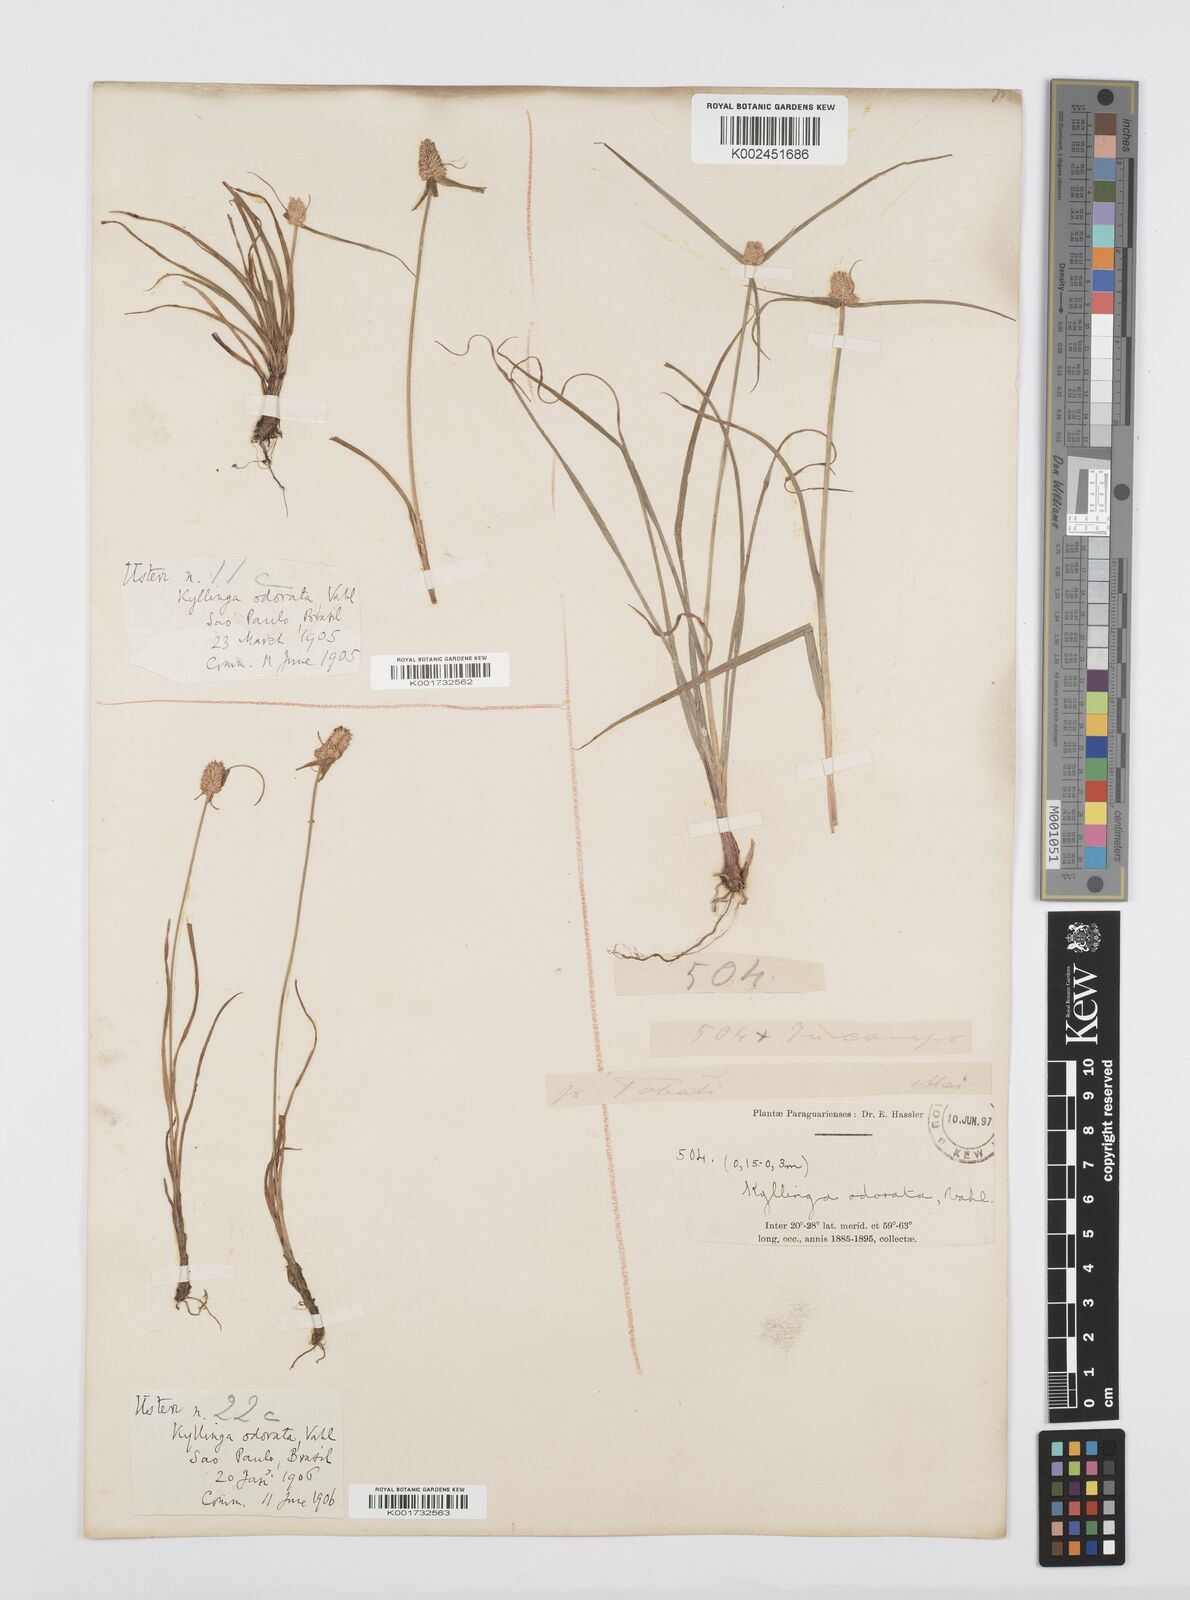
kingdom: Plantae
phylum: Tracheophyta
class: Liliopsida
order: Poales
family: Cyperaceae
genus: Cyperus
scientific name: Cyperus
